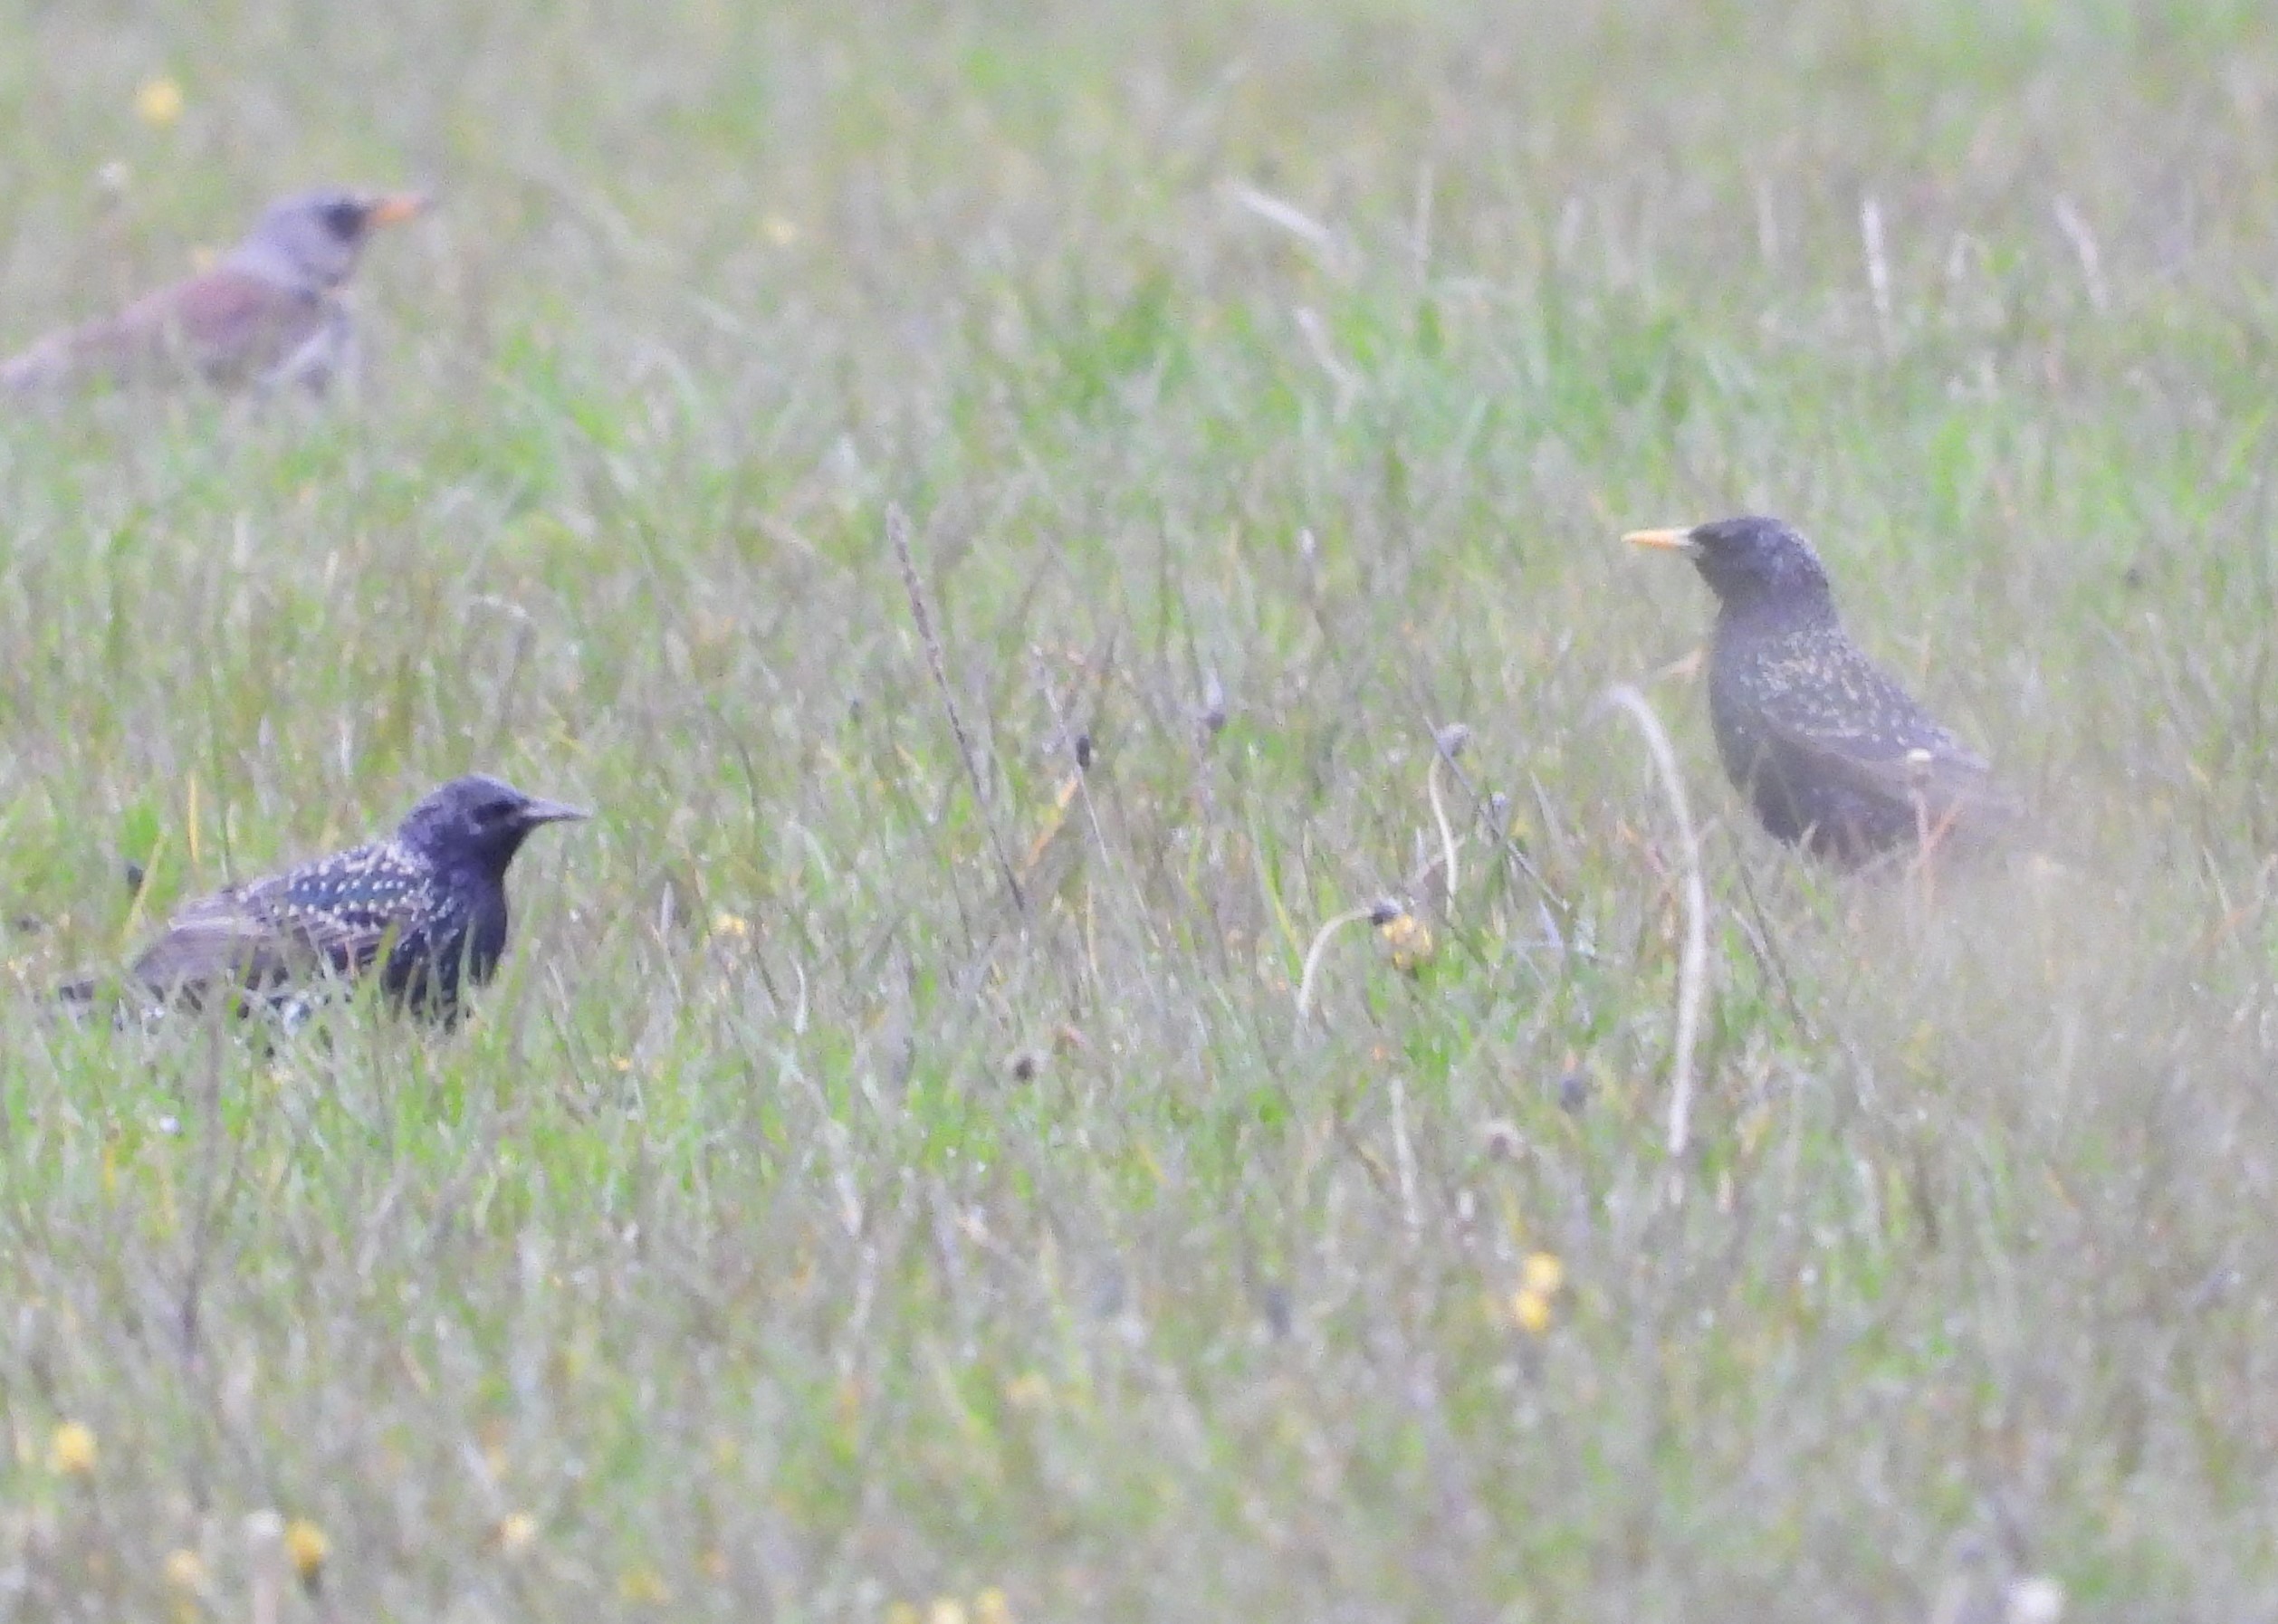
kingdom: Animalia
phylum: Chordata
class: Aves
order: Passeriformes
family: Sturnidae
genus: Sturnus
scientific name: Sturnus vulgaris
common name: Stær
